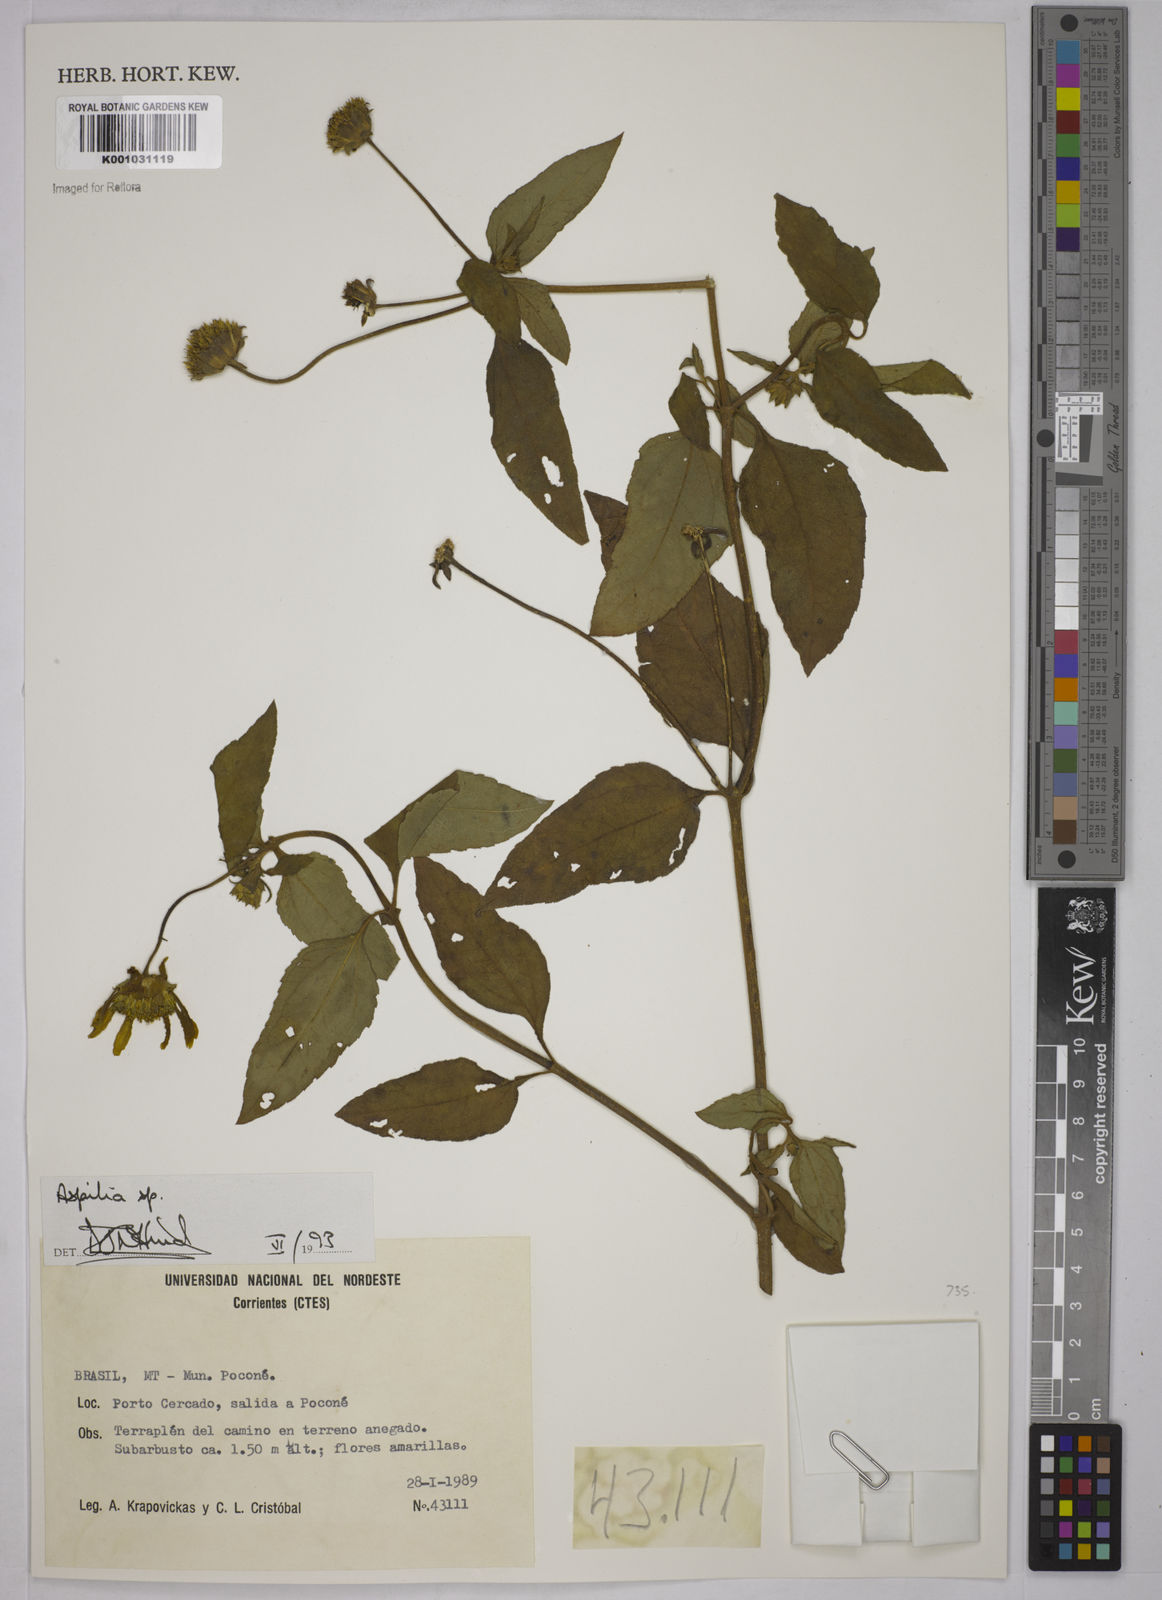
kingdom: Plantae
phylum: Tracheophyta
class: Magnoliopsida
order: Asterales
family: Asteraceae
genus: Aspilia
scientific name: Aspilia
